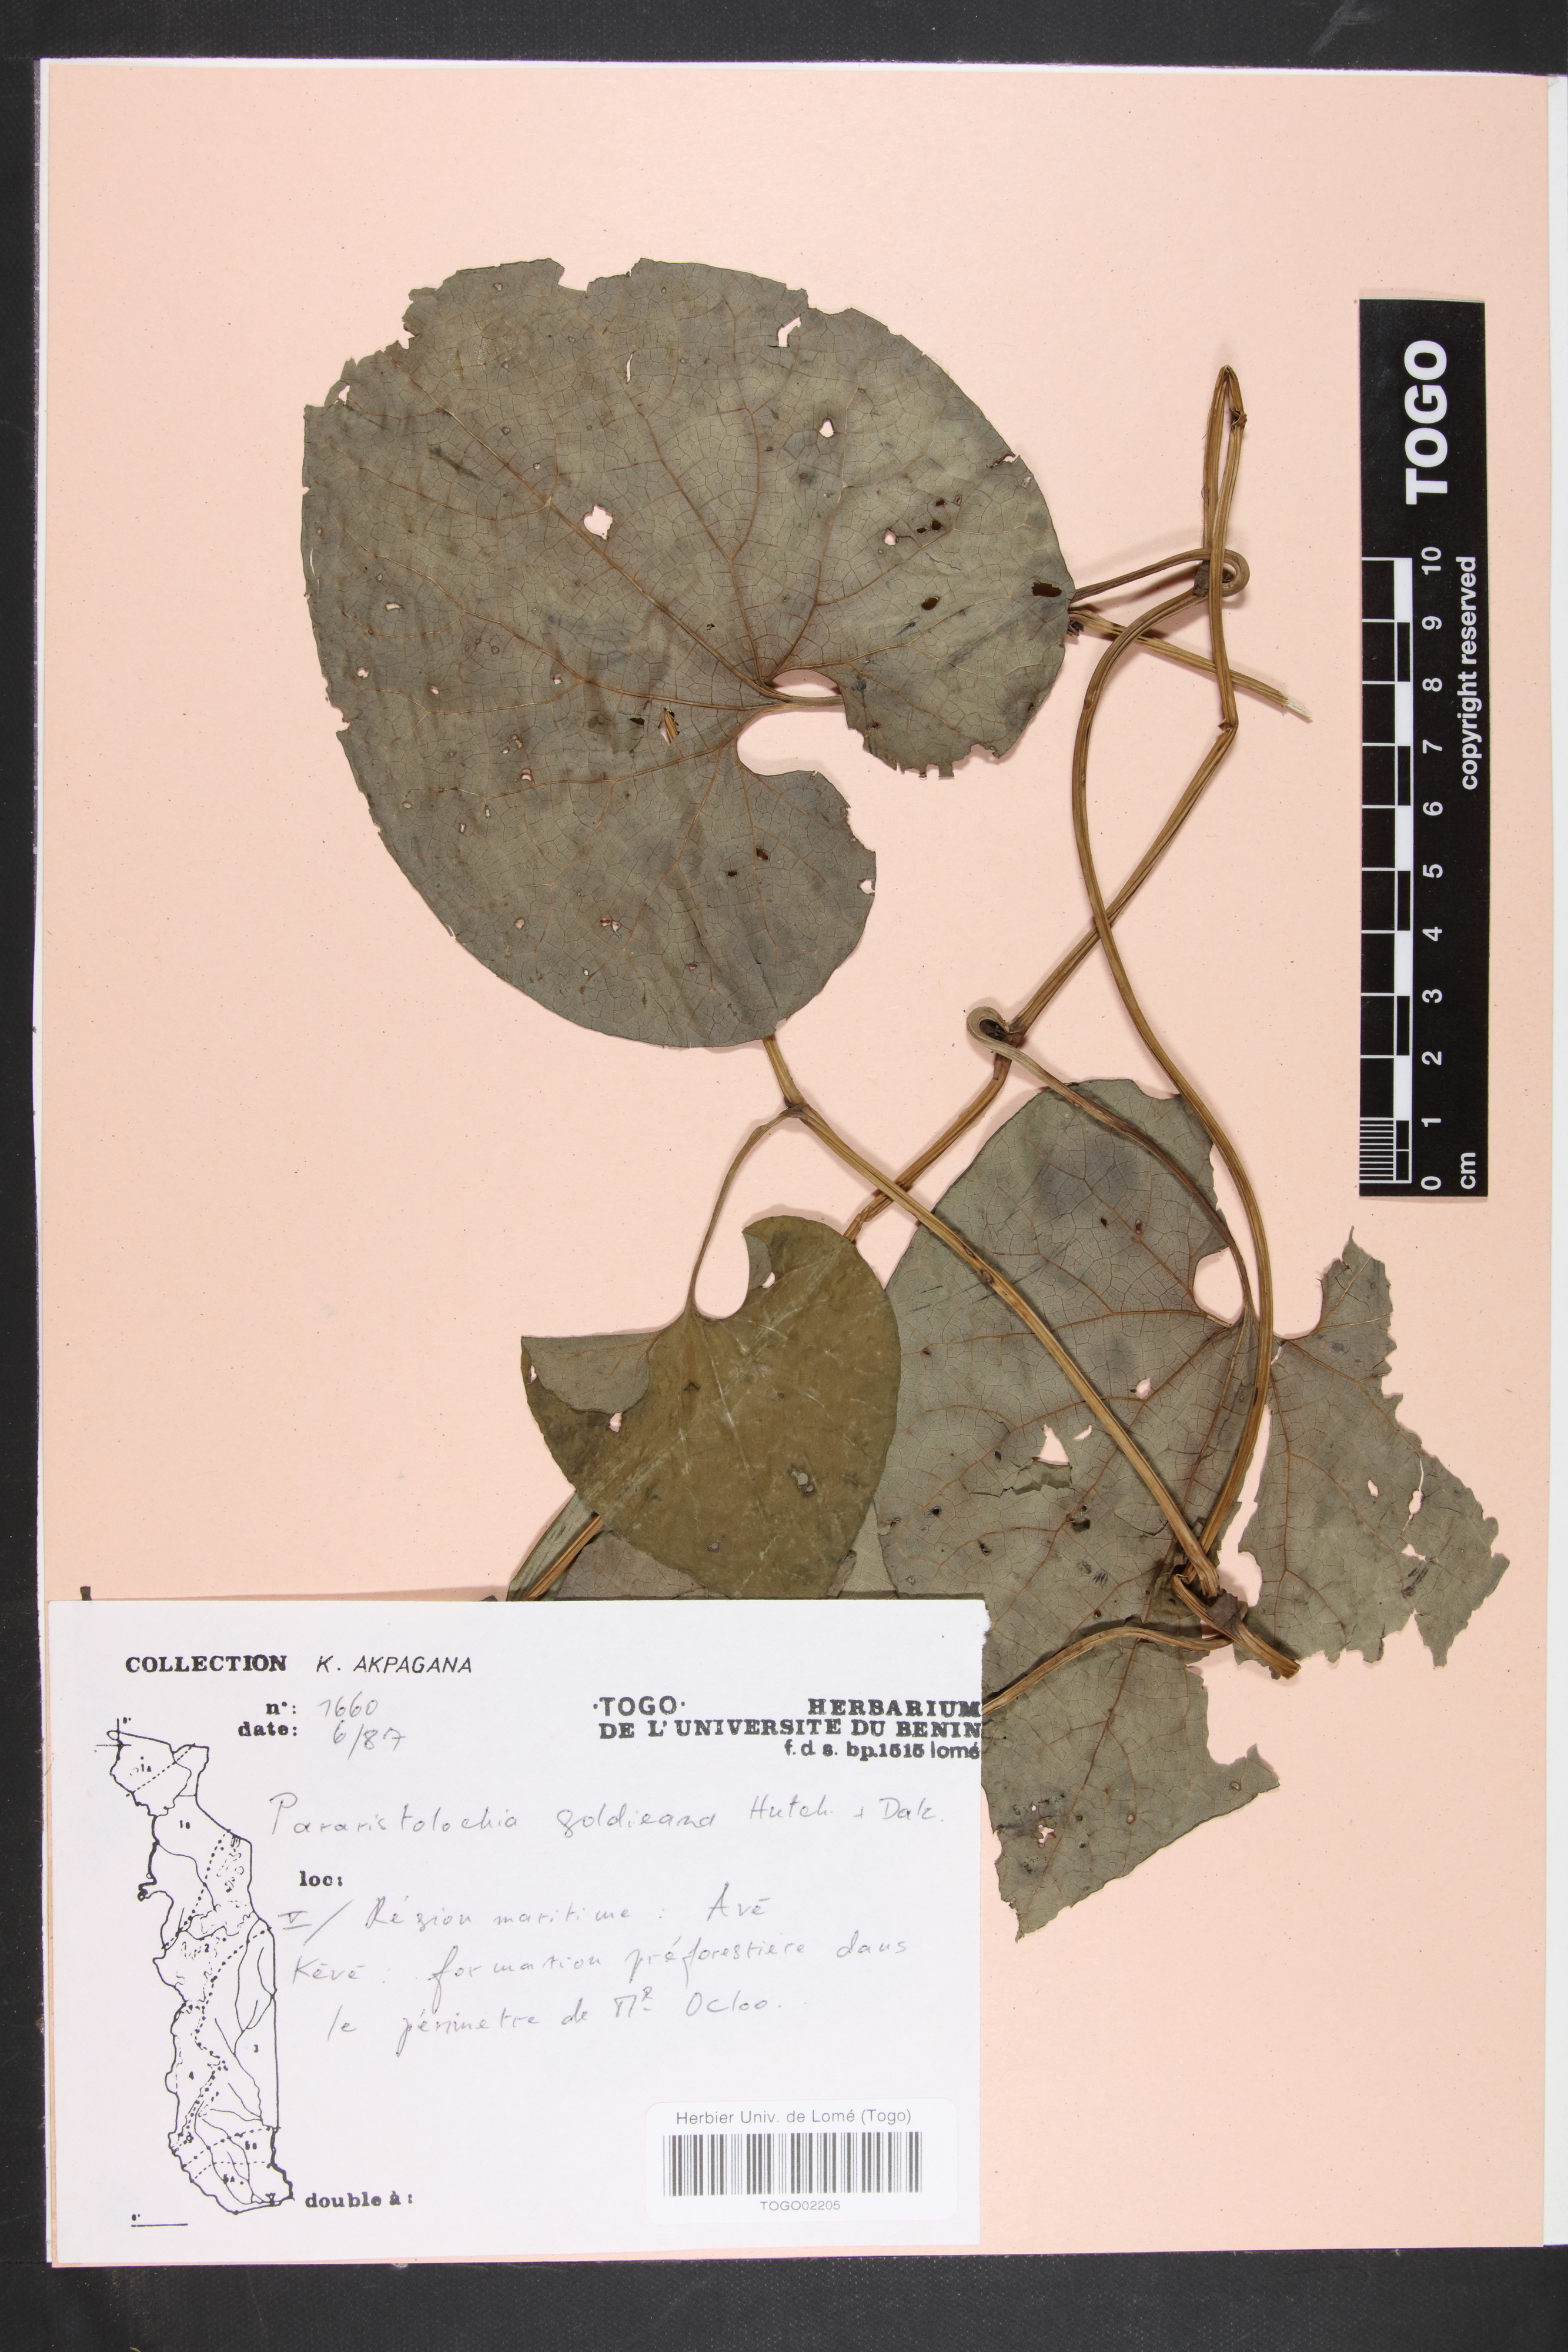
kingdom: Plantae
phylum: Tracheophyta
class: Magnoliopsida
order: Piperales
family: Aristolochiaceae
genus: Aristolochia
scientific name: Aristolochia goldieana
